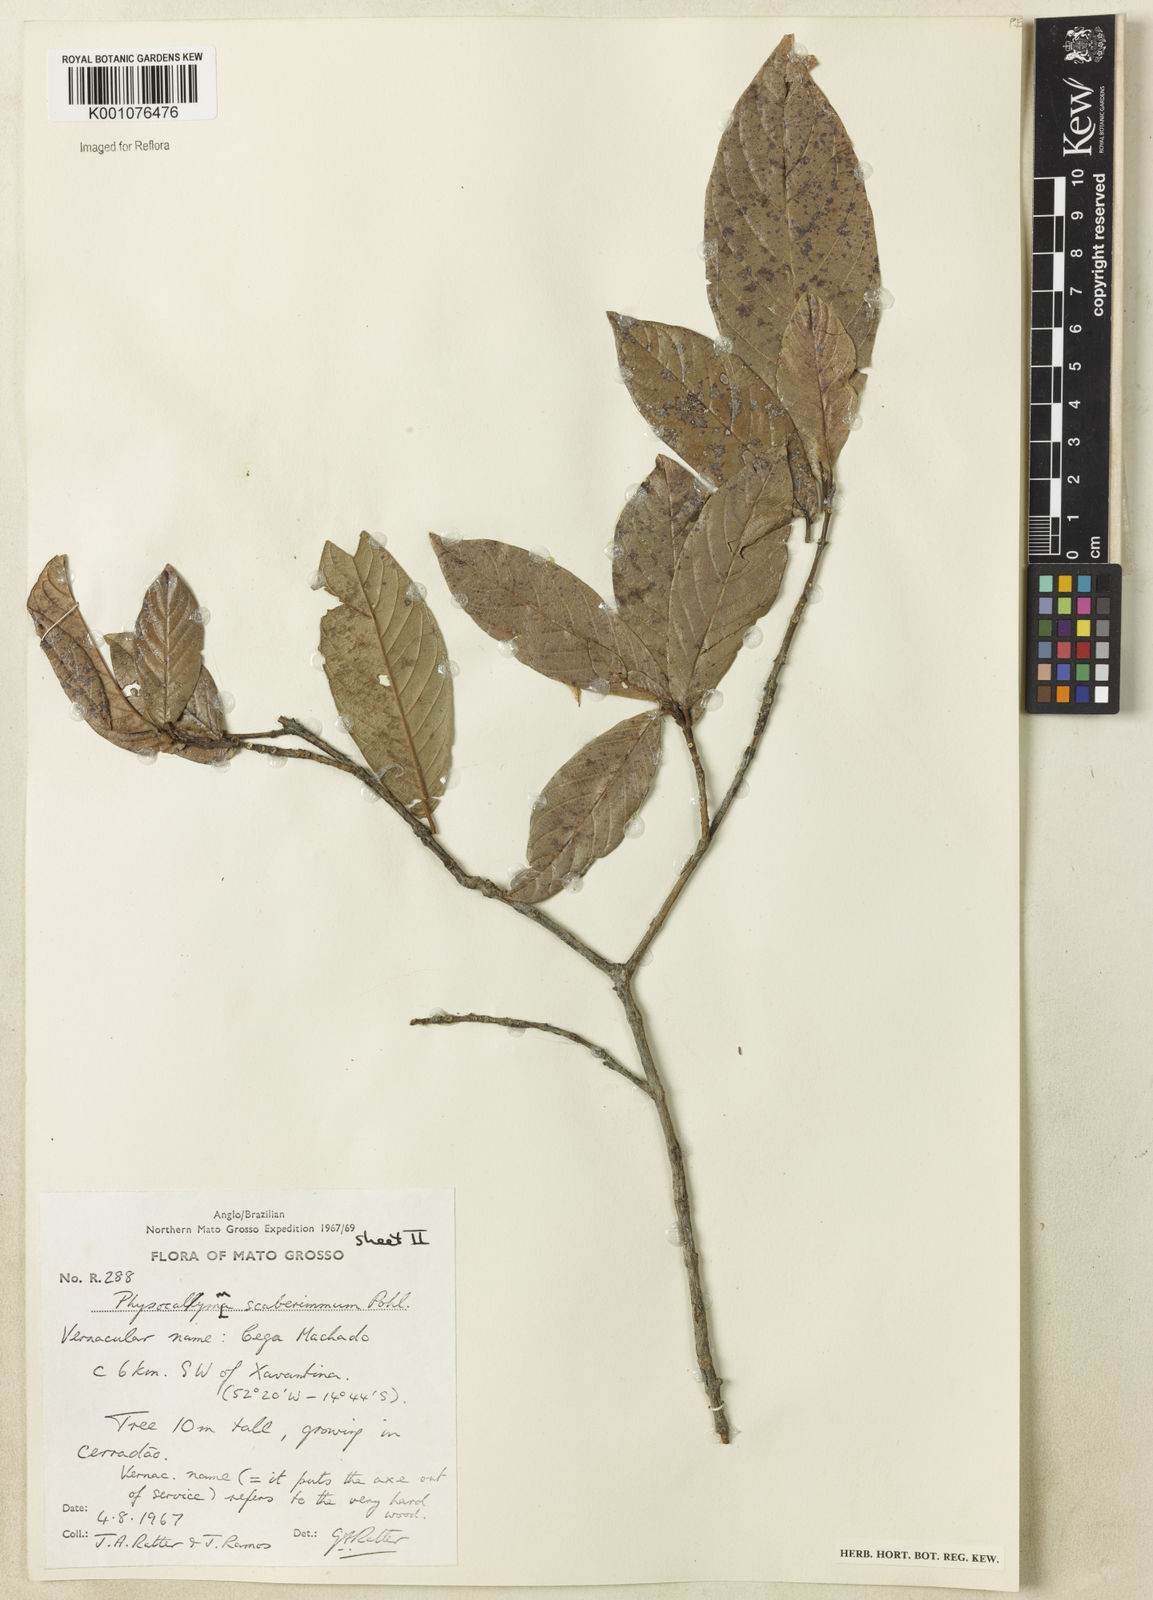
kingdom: Plantae
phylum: Tracheophyta
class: Magnoliopsida
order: Myrtales
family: Lythraceae
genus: Physocalymma
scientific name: Physocalymma scaberrimum
